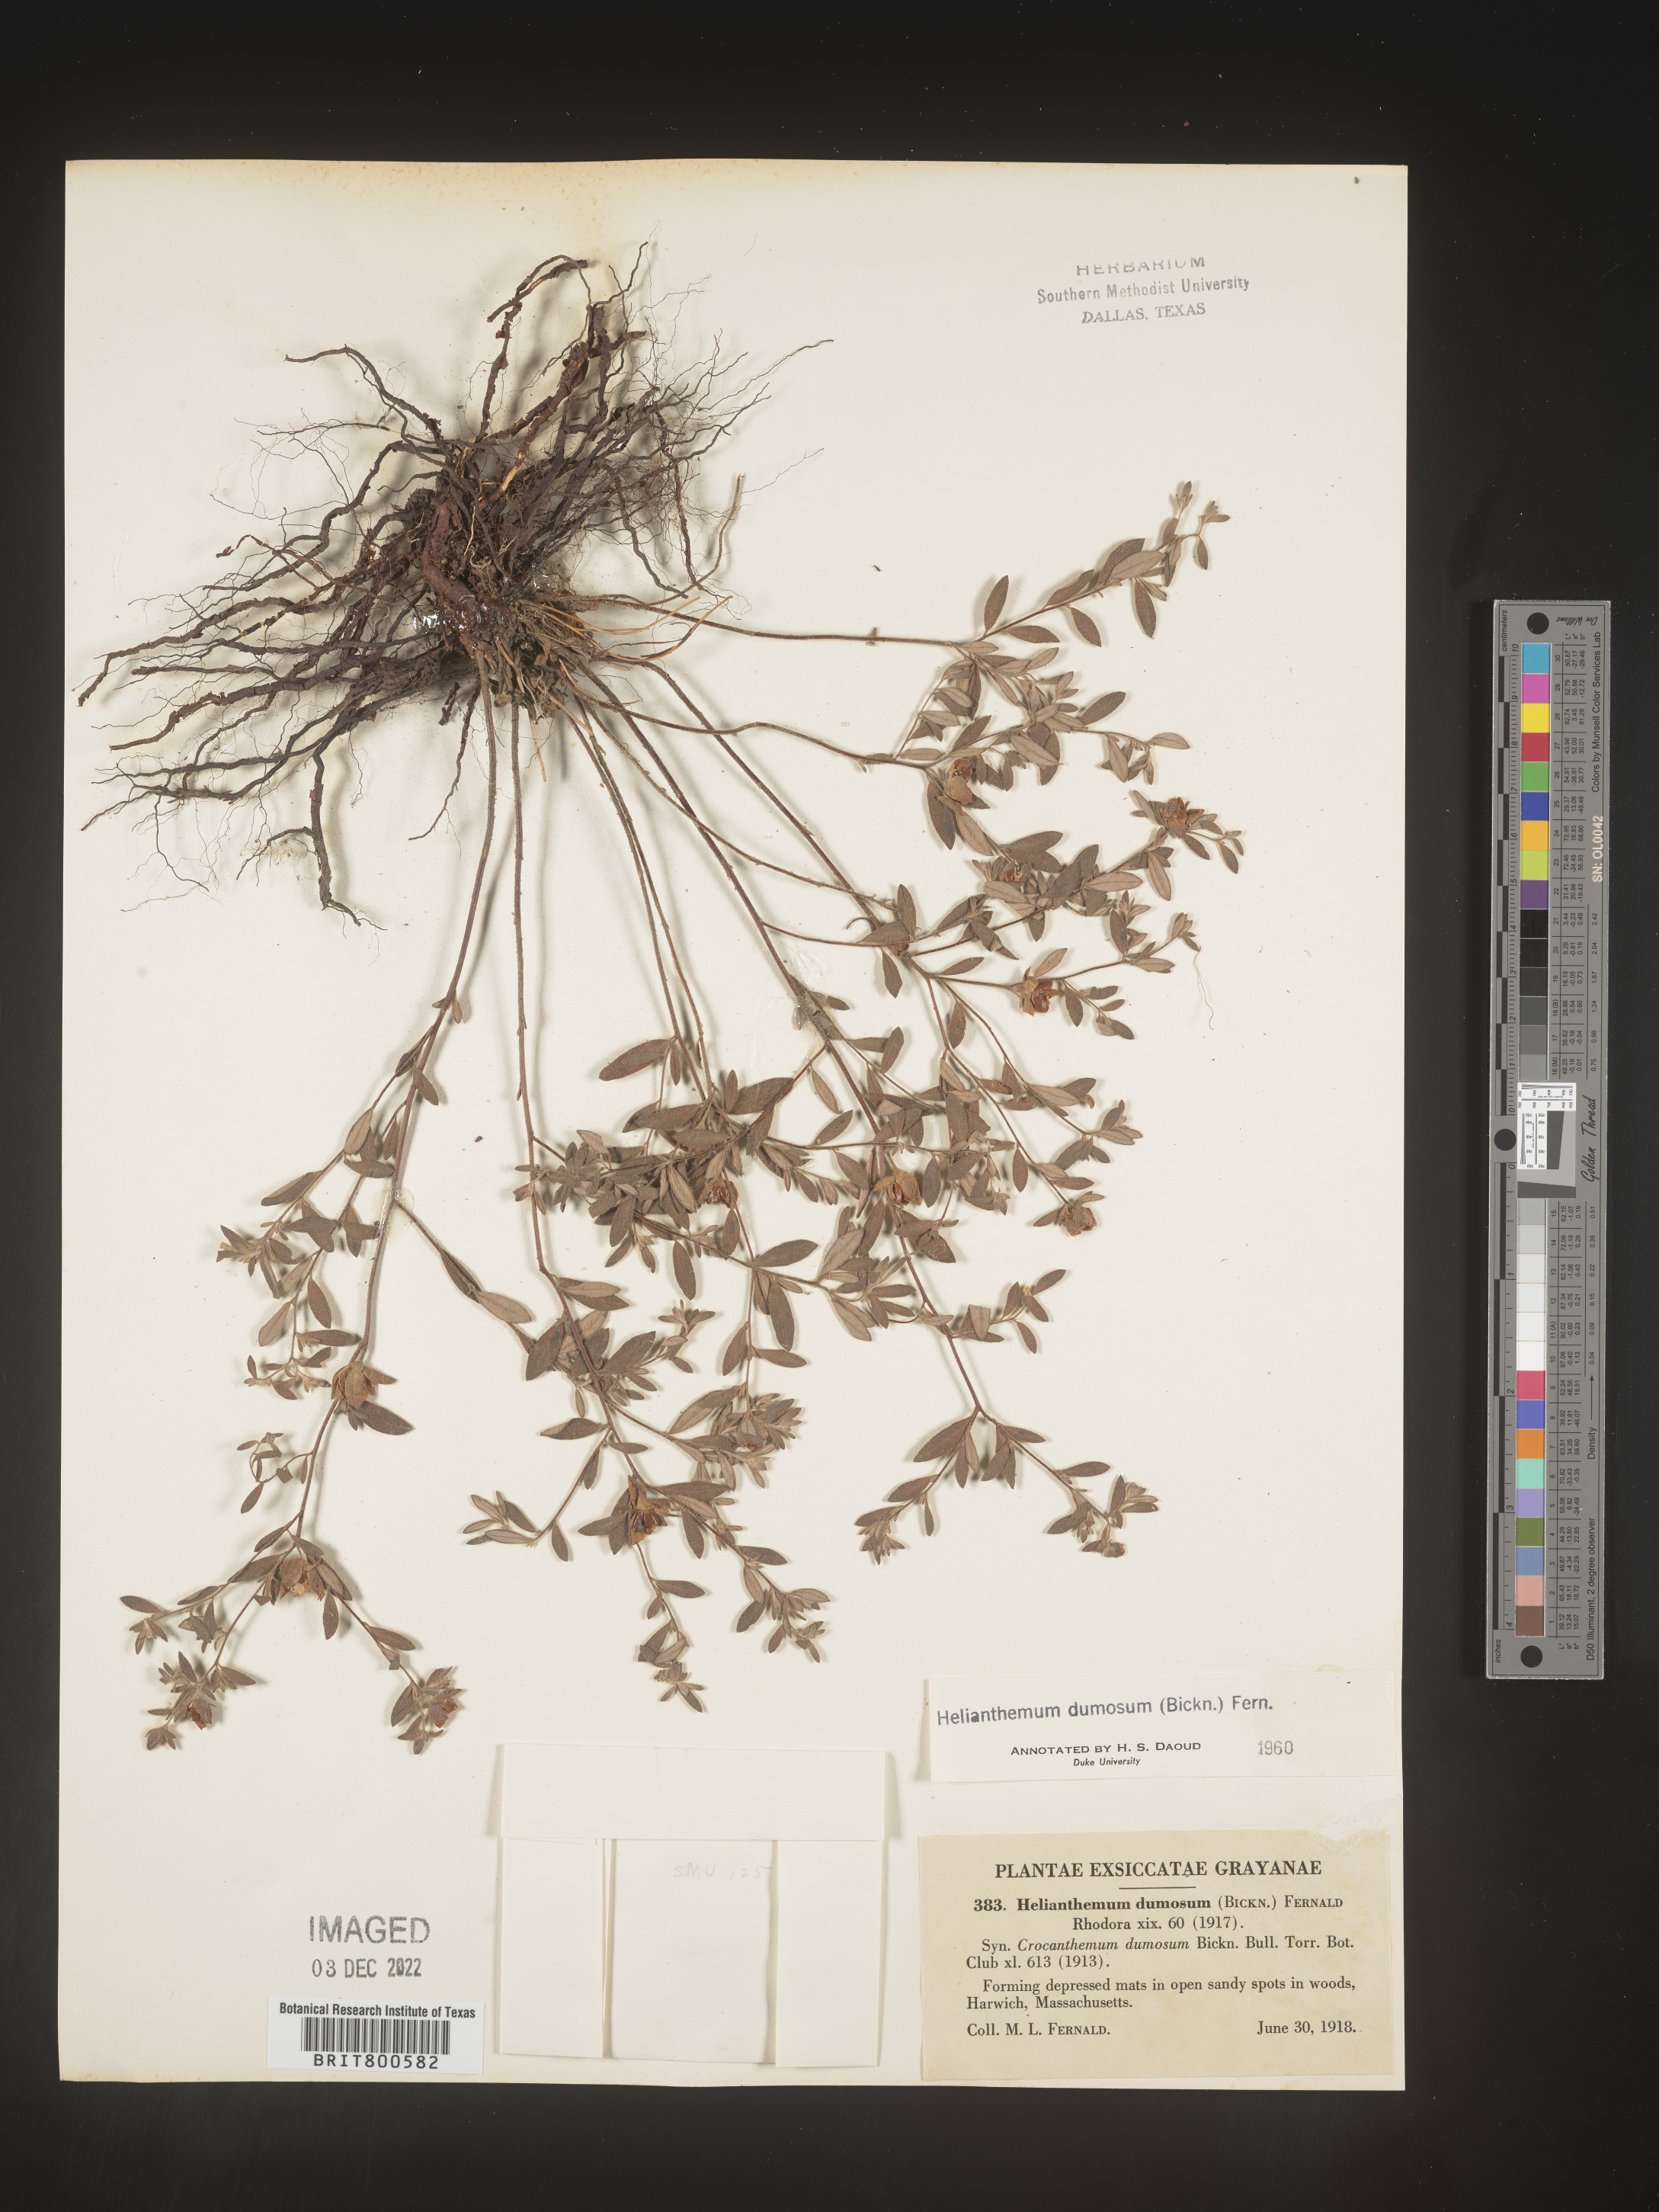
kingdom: Plantae
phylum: Tracheophyta
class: Magnoliopsida
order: Malvales
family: Cistaceae
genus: Crocanthemum
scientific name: Crocanthemum dumosum
